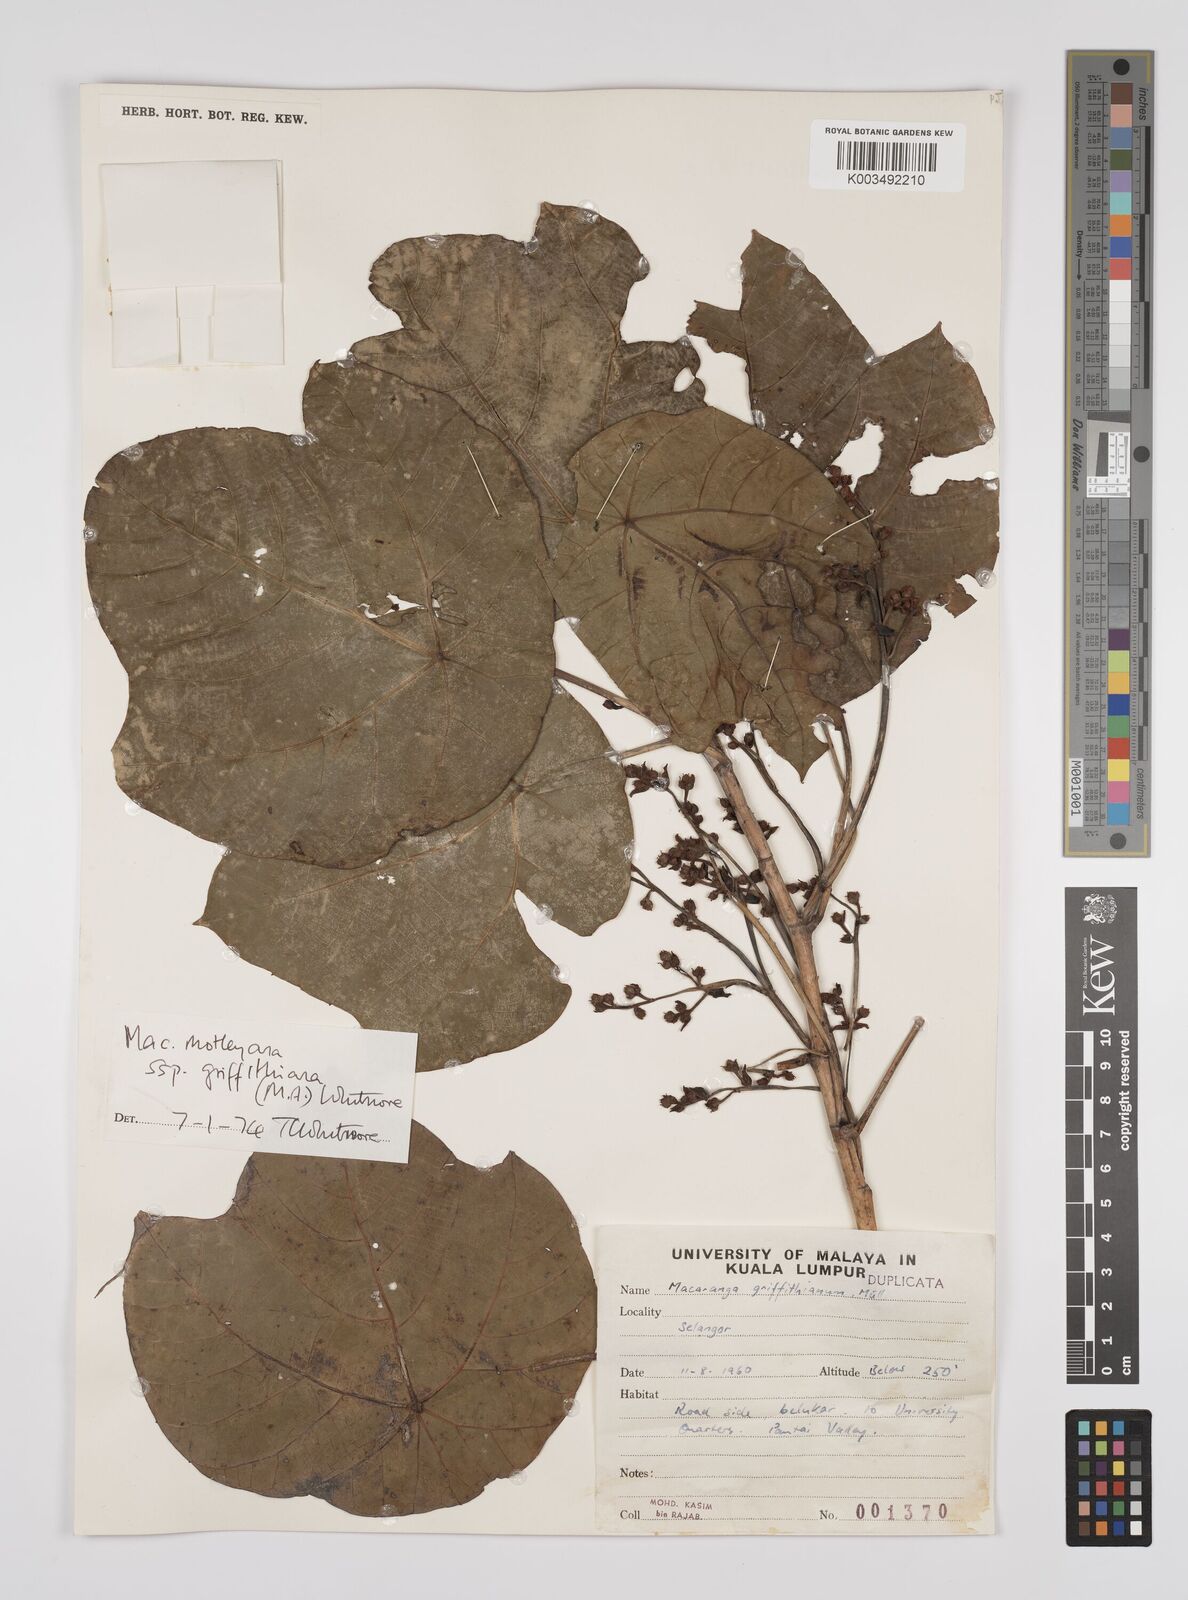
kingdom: Plantae
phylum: Tracheophyta
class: Magnoliopsida
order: Malpighiales
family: Euphorbiaceae
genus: Macaranga
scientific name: Macaranga griffithiana
